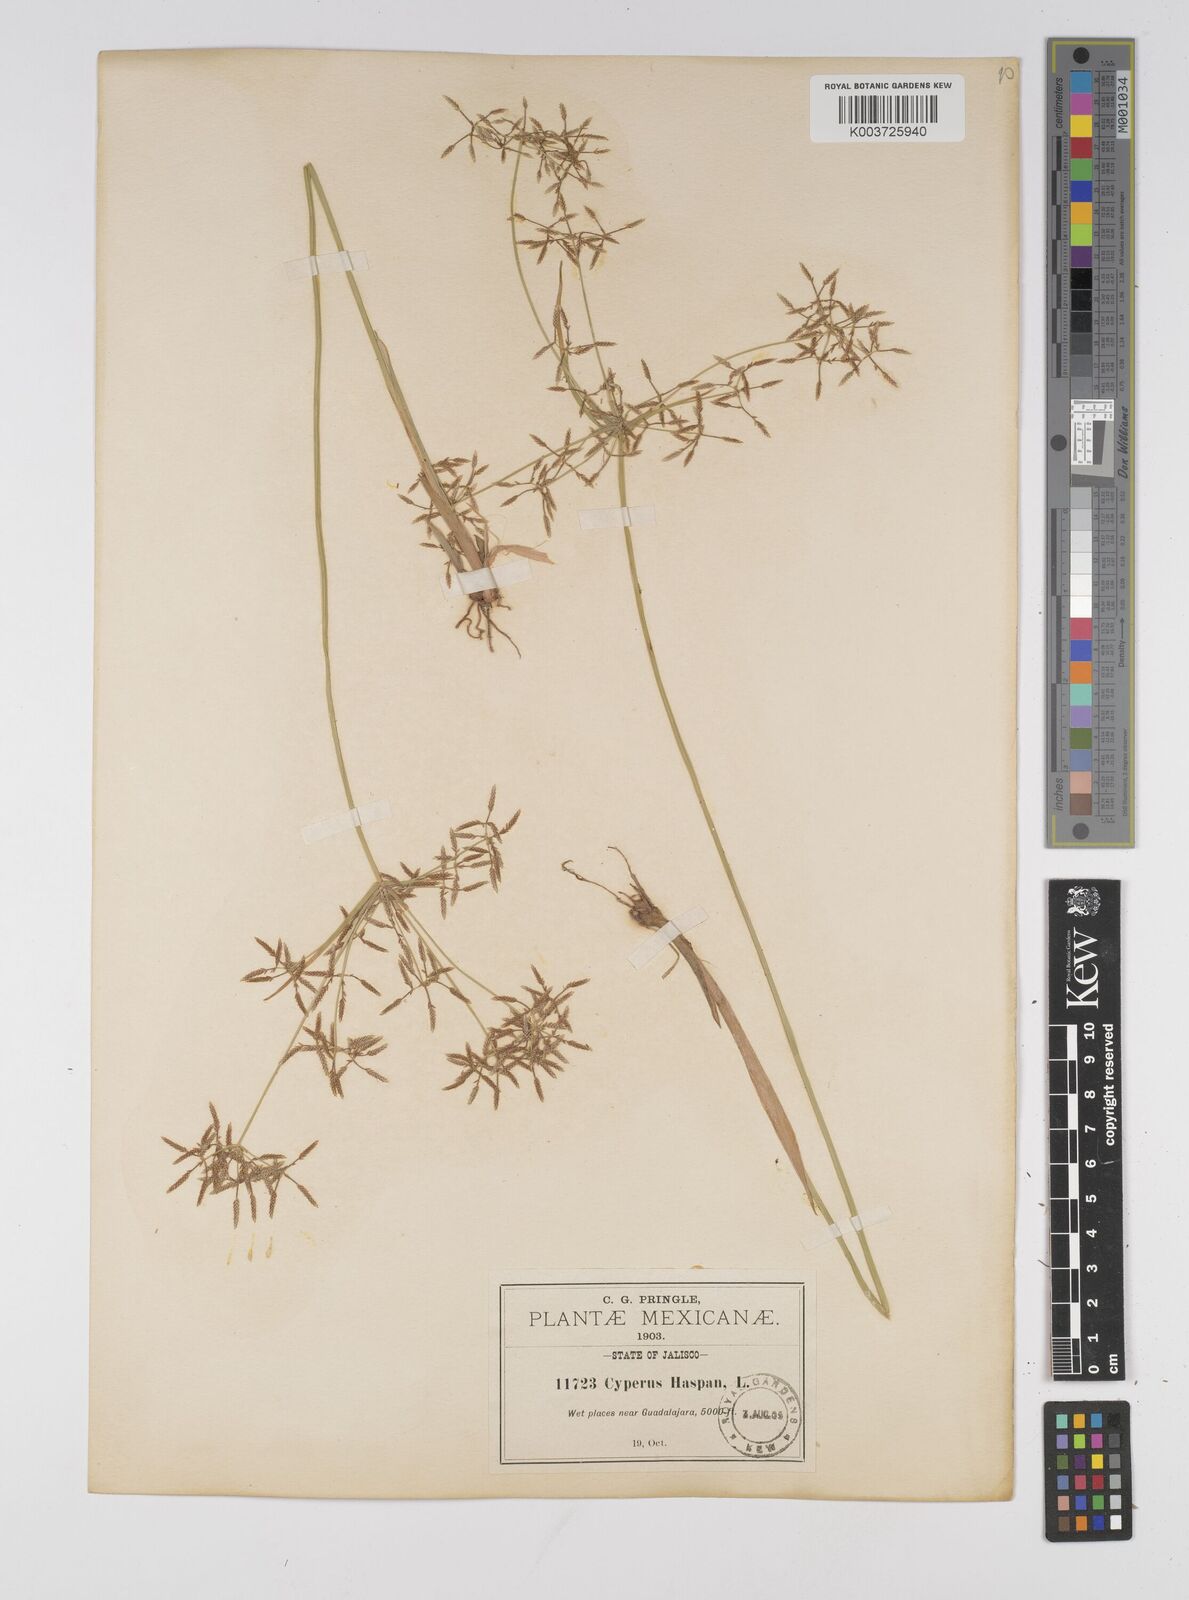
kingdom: Plantae
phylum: Tracheophyta
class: Liliopsida
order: Poales
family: Cyperaceae
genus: Cyperus
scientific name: Cyperus haspan
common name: Haspan flatsedge
